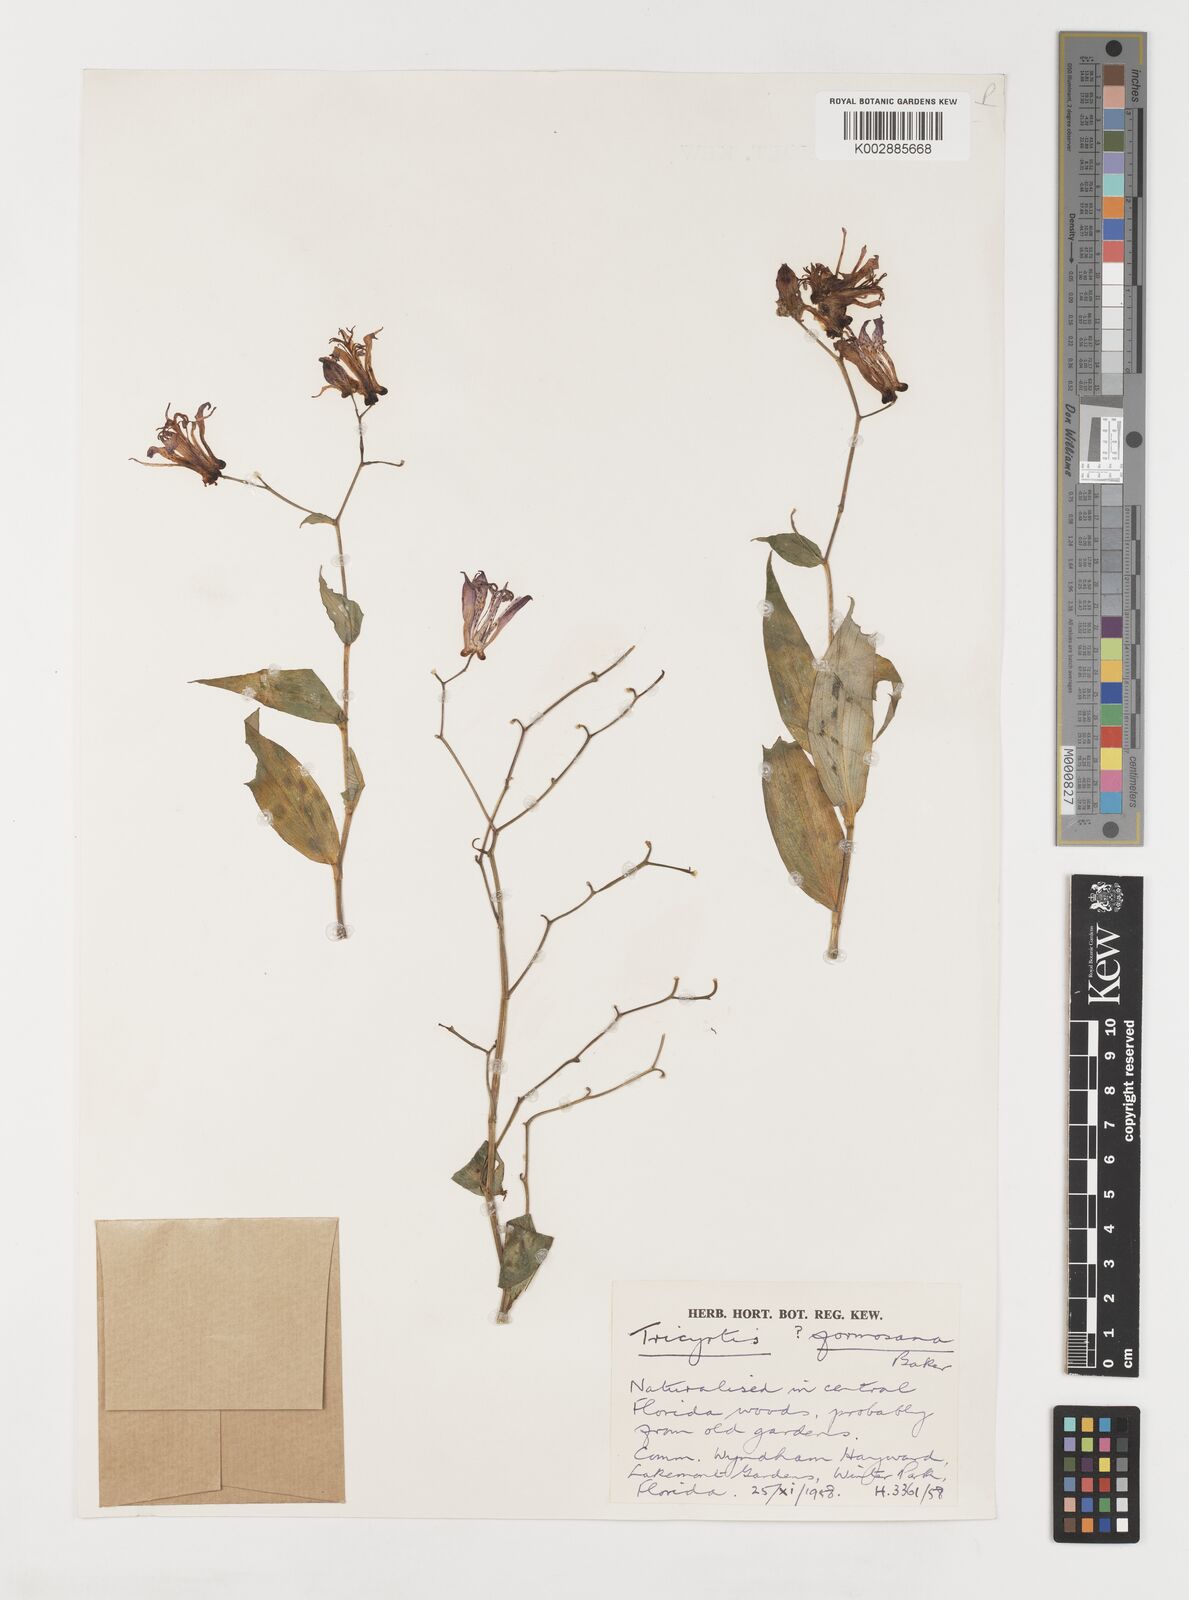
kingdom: Plantae
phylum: Tracheophyta
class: Liliopsida
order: Liliales
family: Liliaceae
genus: Tricyrtis
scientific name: Tricyrtis formosana
